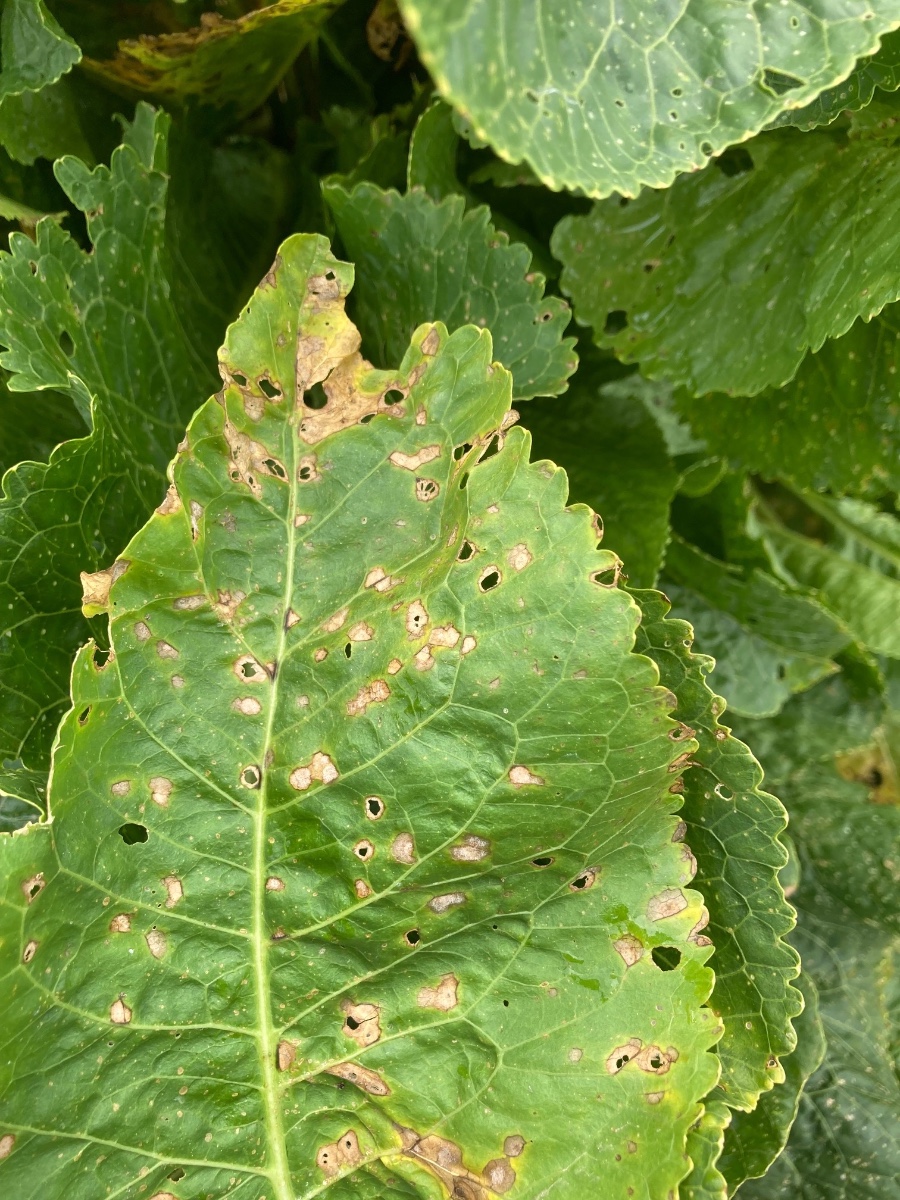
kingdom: Fungi
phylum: Ascomycota
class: Dothideomycetes
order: Mycosphaerellales
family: Mycosphaerellaceae
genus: Ramularia
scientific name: Ramularia armoraciae
